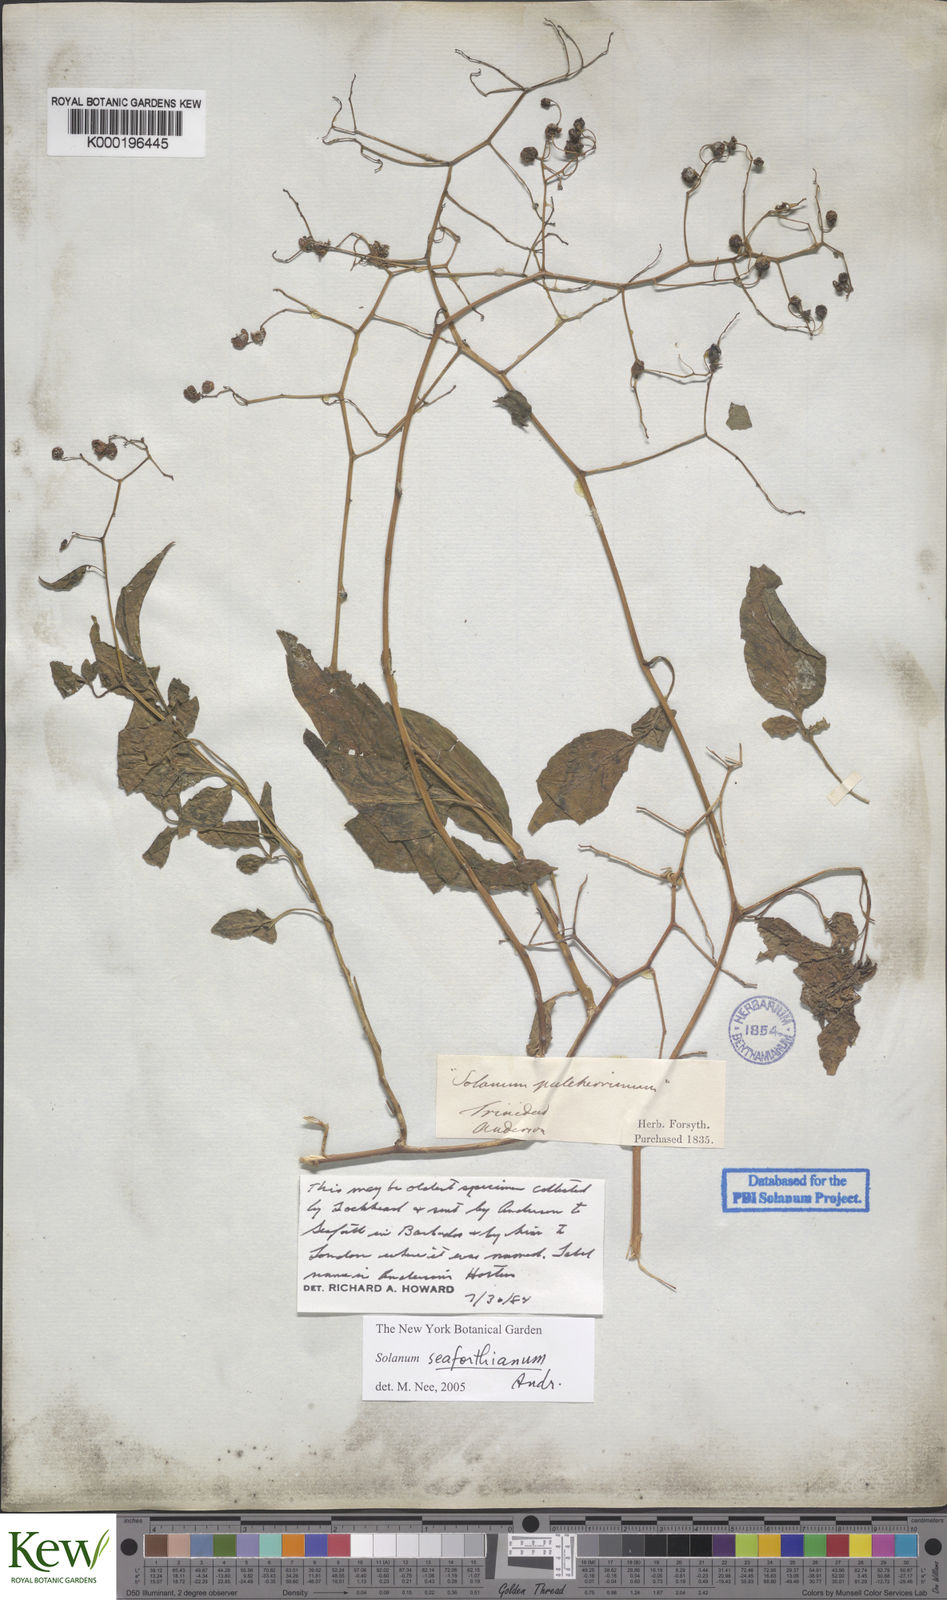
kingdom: Plantae
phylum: Tracheophyta
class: Magnoliopsida
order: Solanales
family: Solanaceae
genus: Solanum
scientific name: Solanum seaforthianum
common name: Brazilian nightshade
